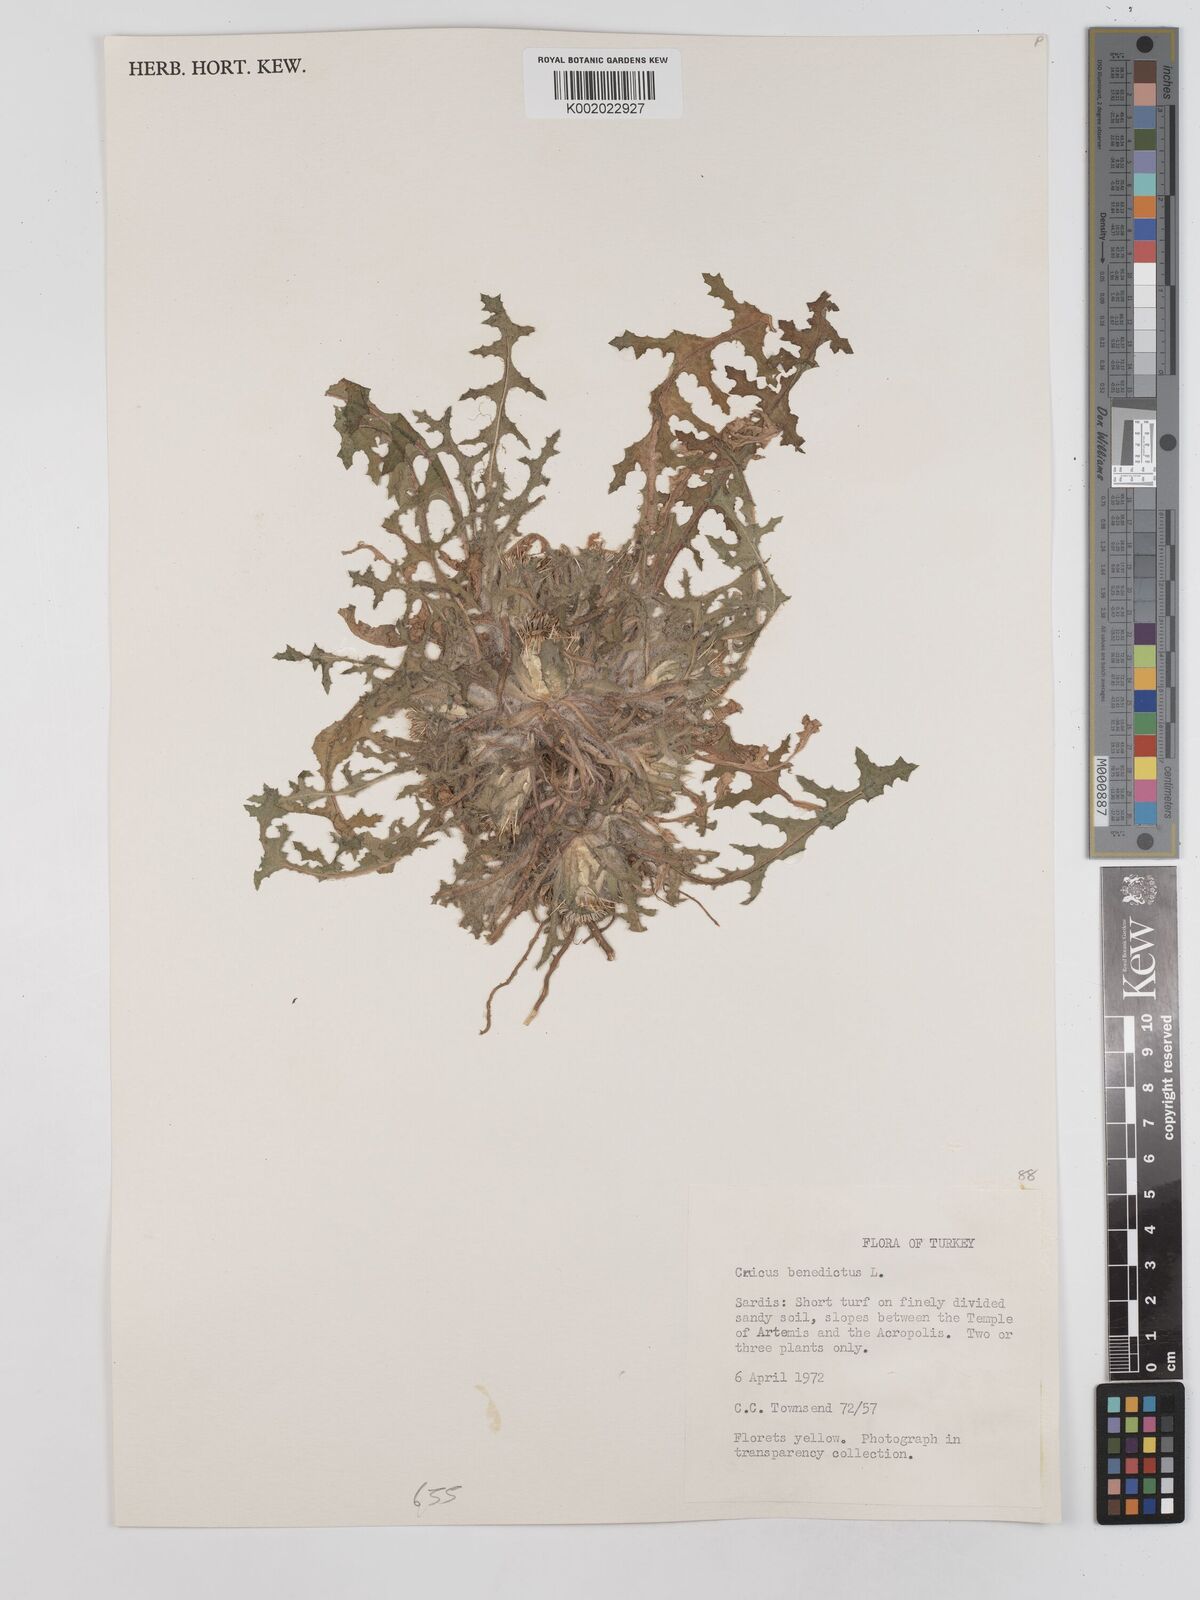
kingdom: Plantae
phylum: Tracheophyta
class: Magnoliopsida
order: Asterales
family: Asteraceae
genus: Centaurea
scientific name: Centaurea benedicta
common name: Blessed thistle
